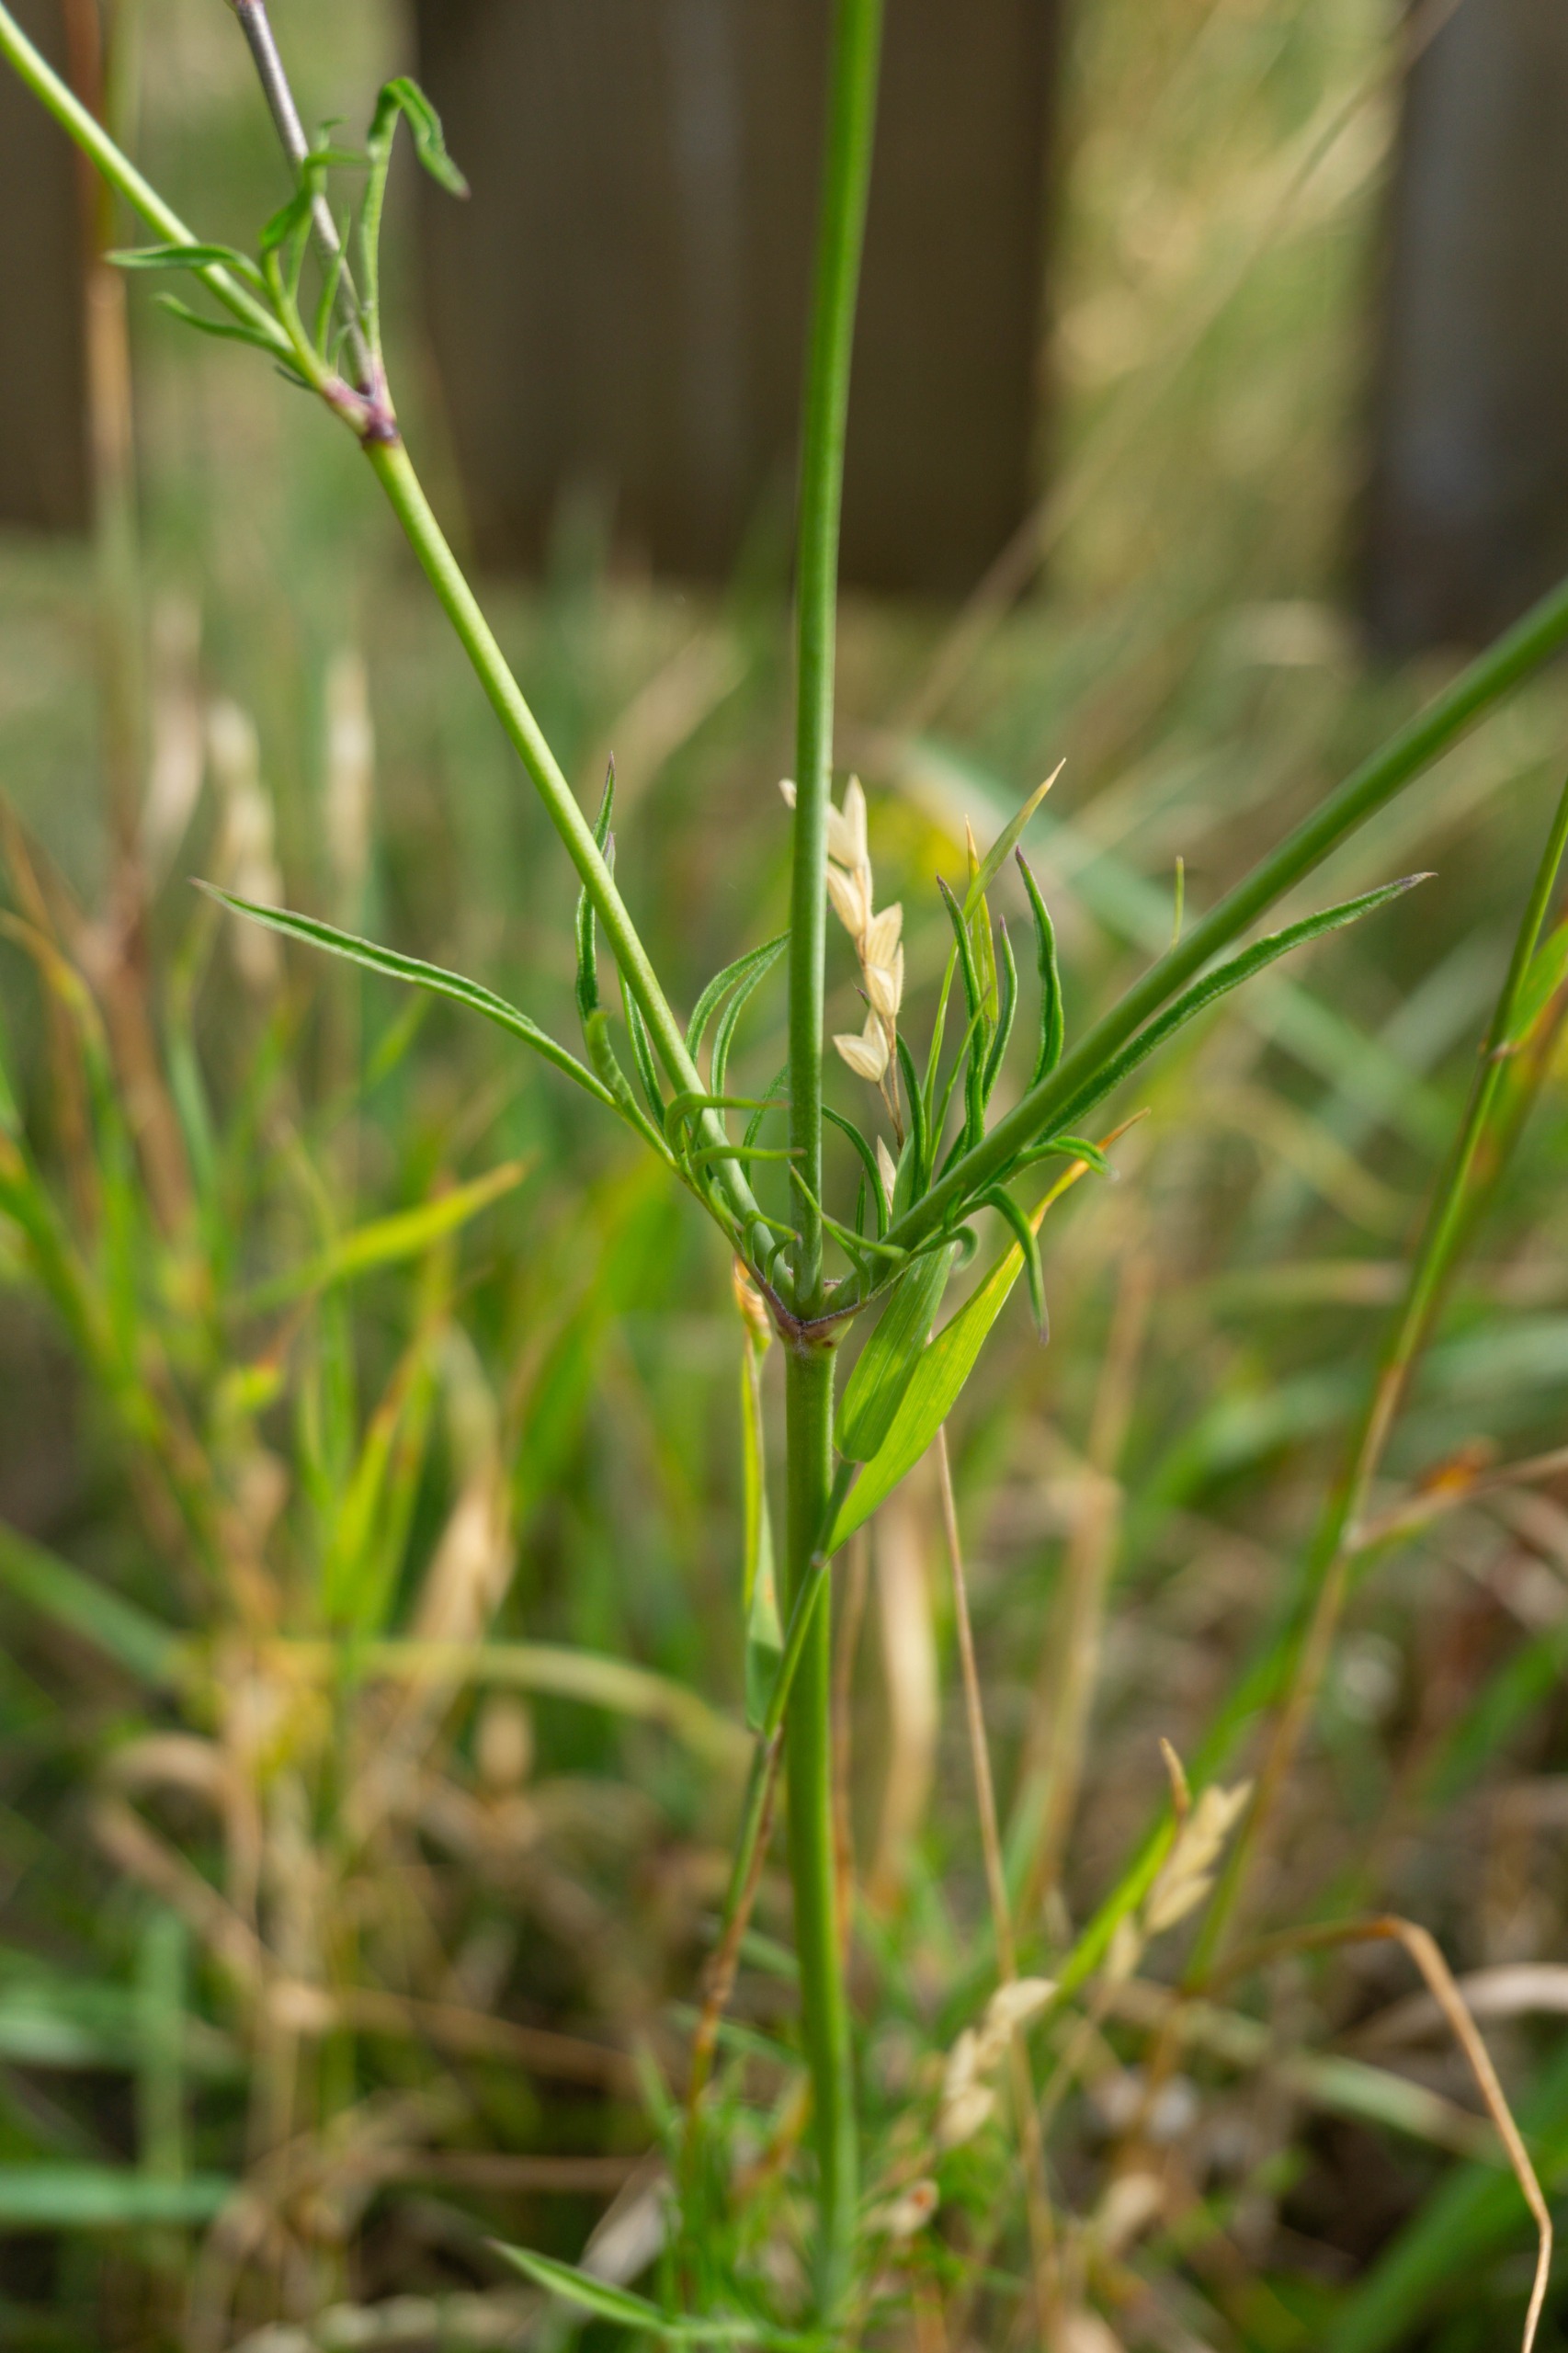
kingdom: Plantae
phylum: Tracheophyta
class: Magnoliopsida
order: Dipsacales
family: Caprifoliaceae
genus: Scabiosa
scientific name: Scabiosa columbaria
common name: Due-skabiose
